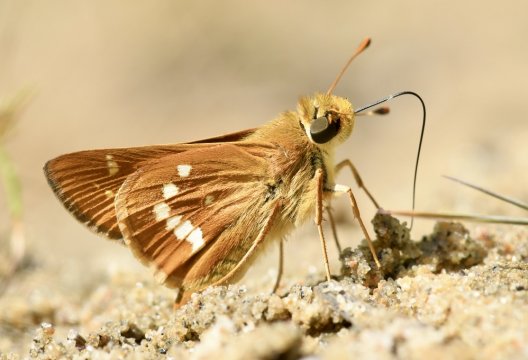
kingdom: Animalia
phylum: Arthropoda
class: Insecta
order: Lepidoptera
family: Hesperiidae
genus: Hesperia
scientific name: Hesperia leonardus
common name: Leonard's Skipper
